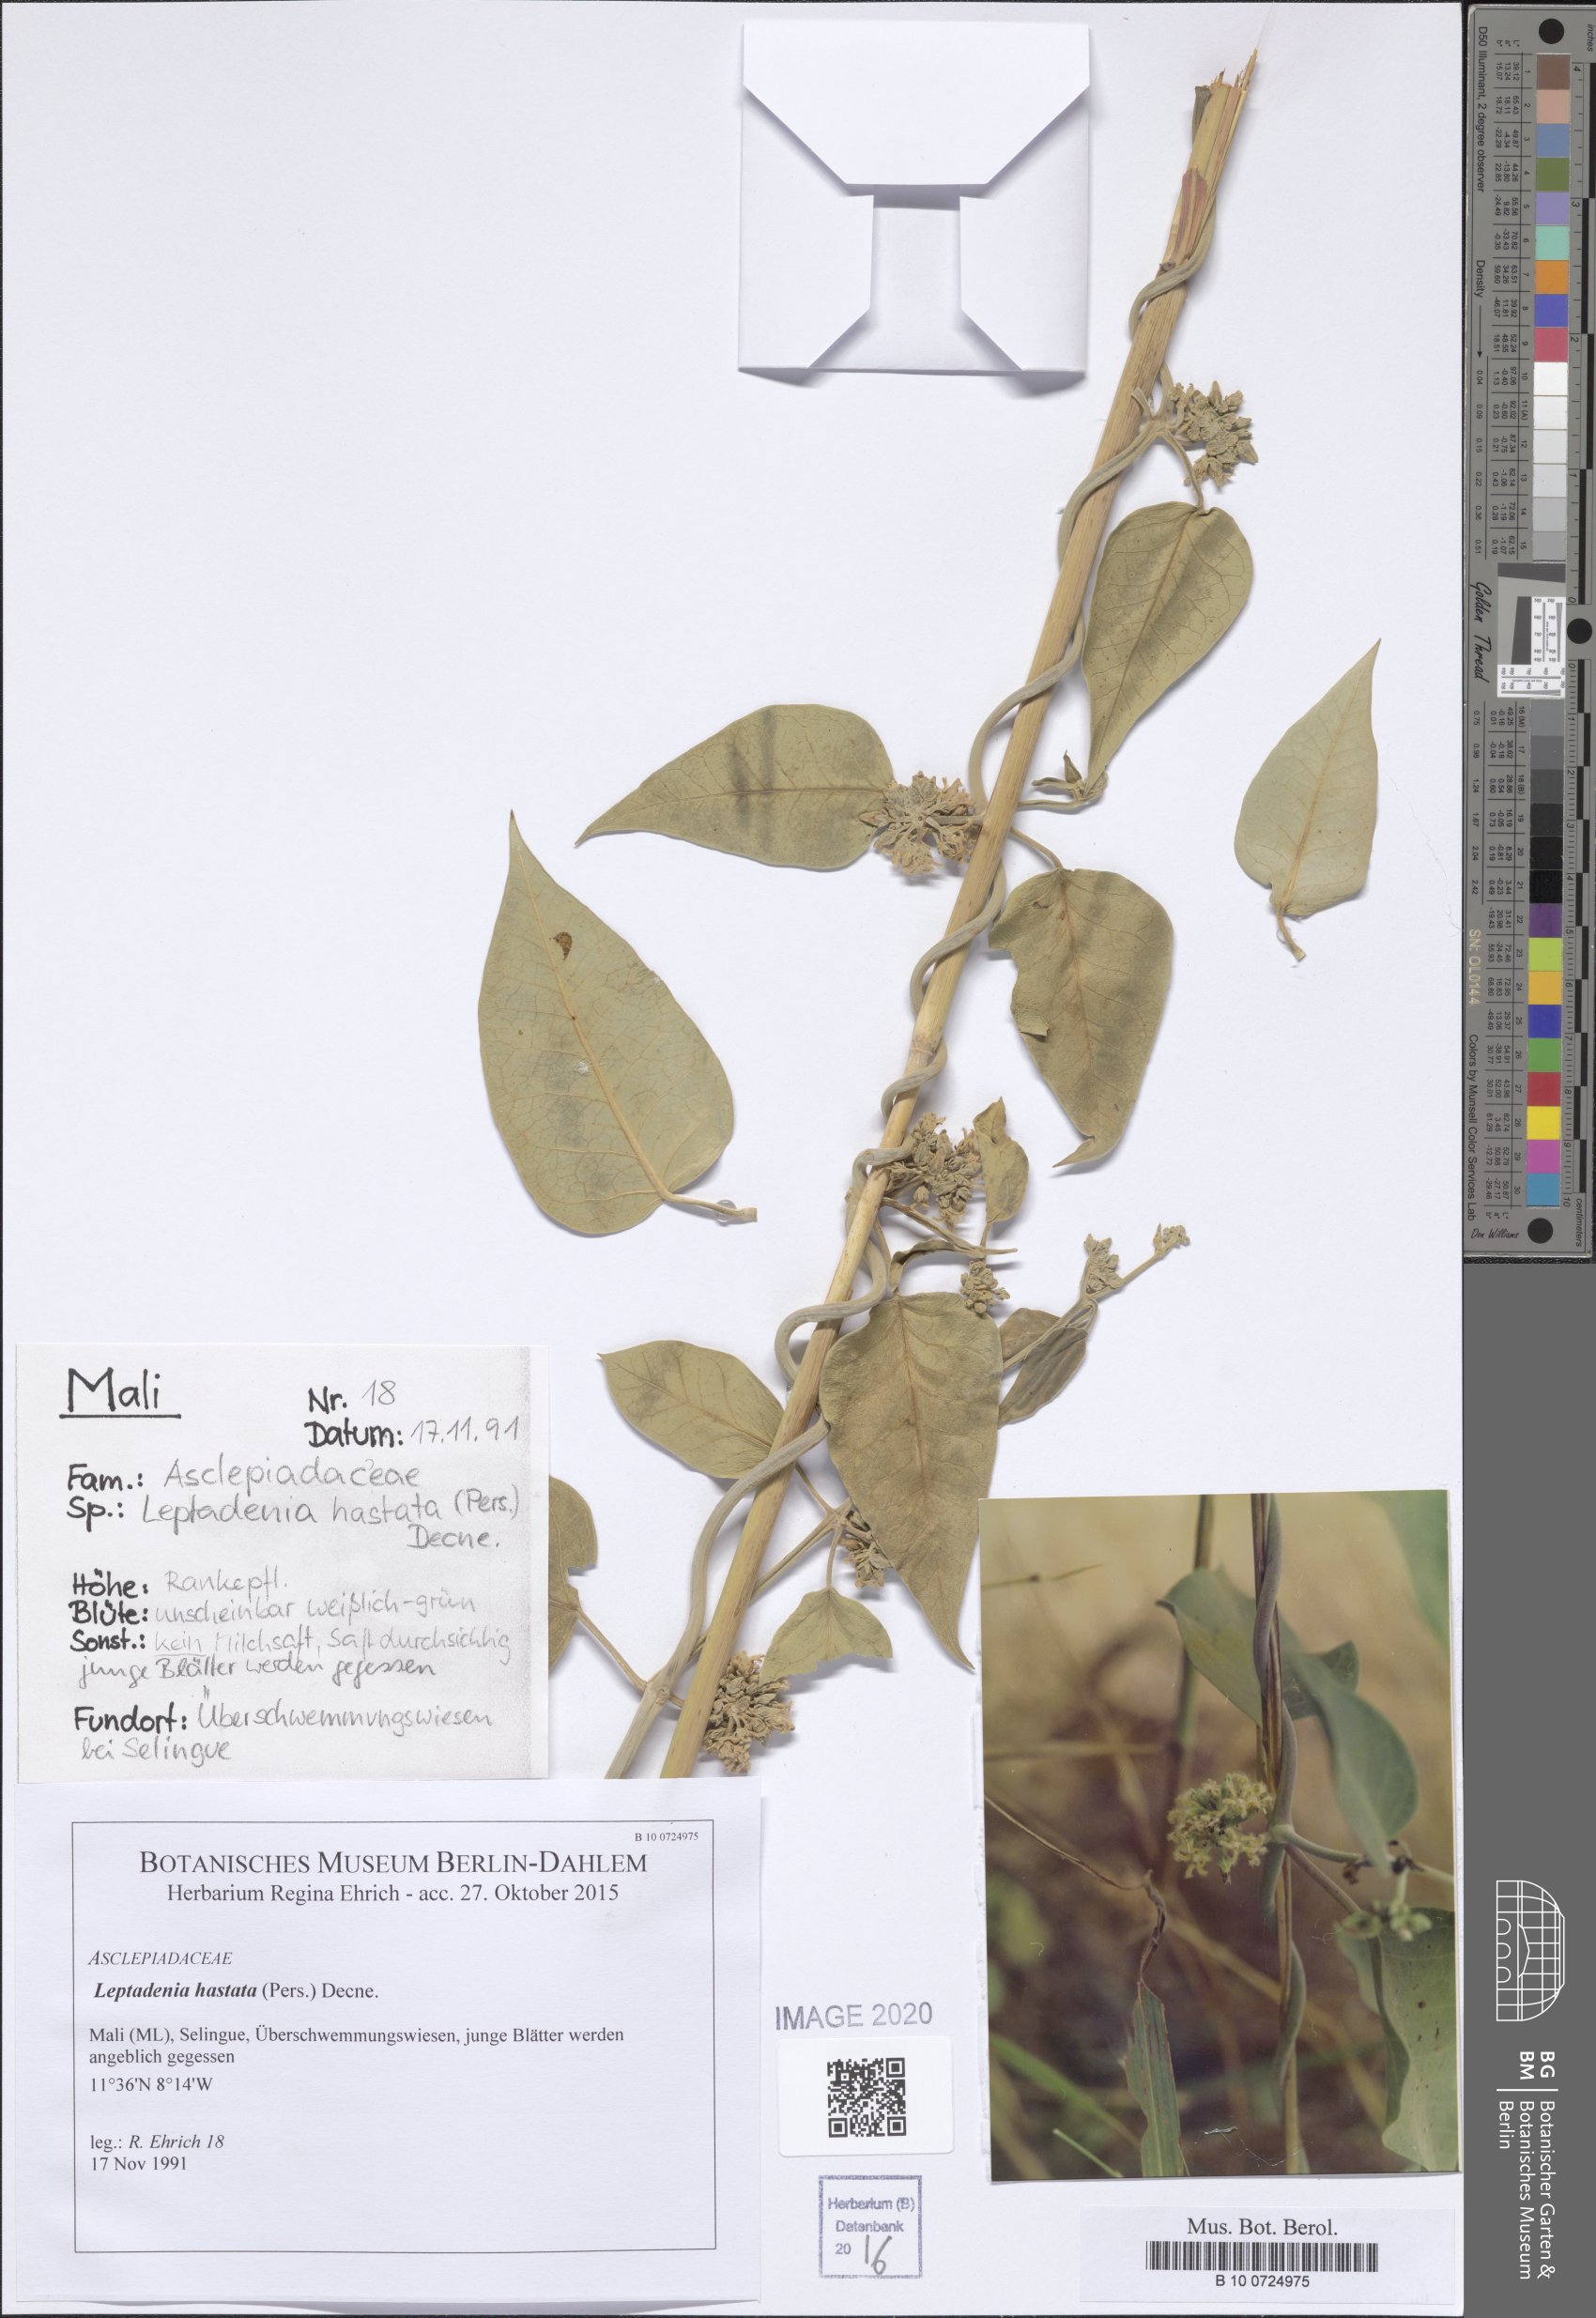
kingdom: Plantae
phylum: Tracheophyta
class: Magnoliopsida
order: Gentianales
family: Apocynaceae
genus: Leptadenia
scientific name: Leptadenia lanceolata
